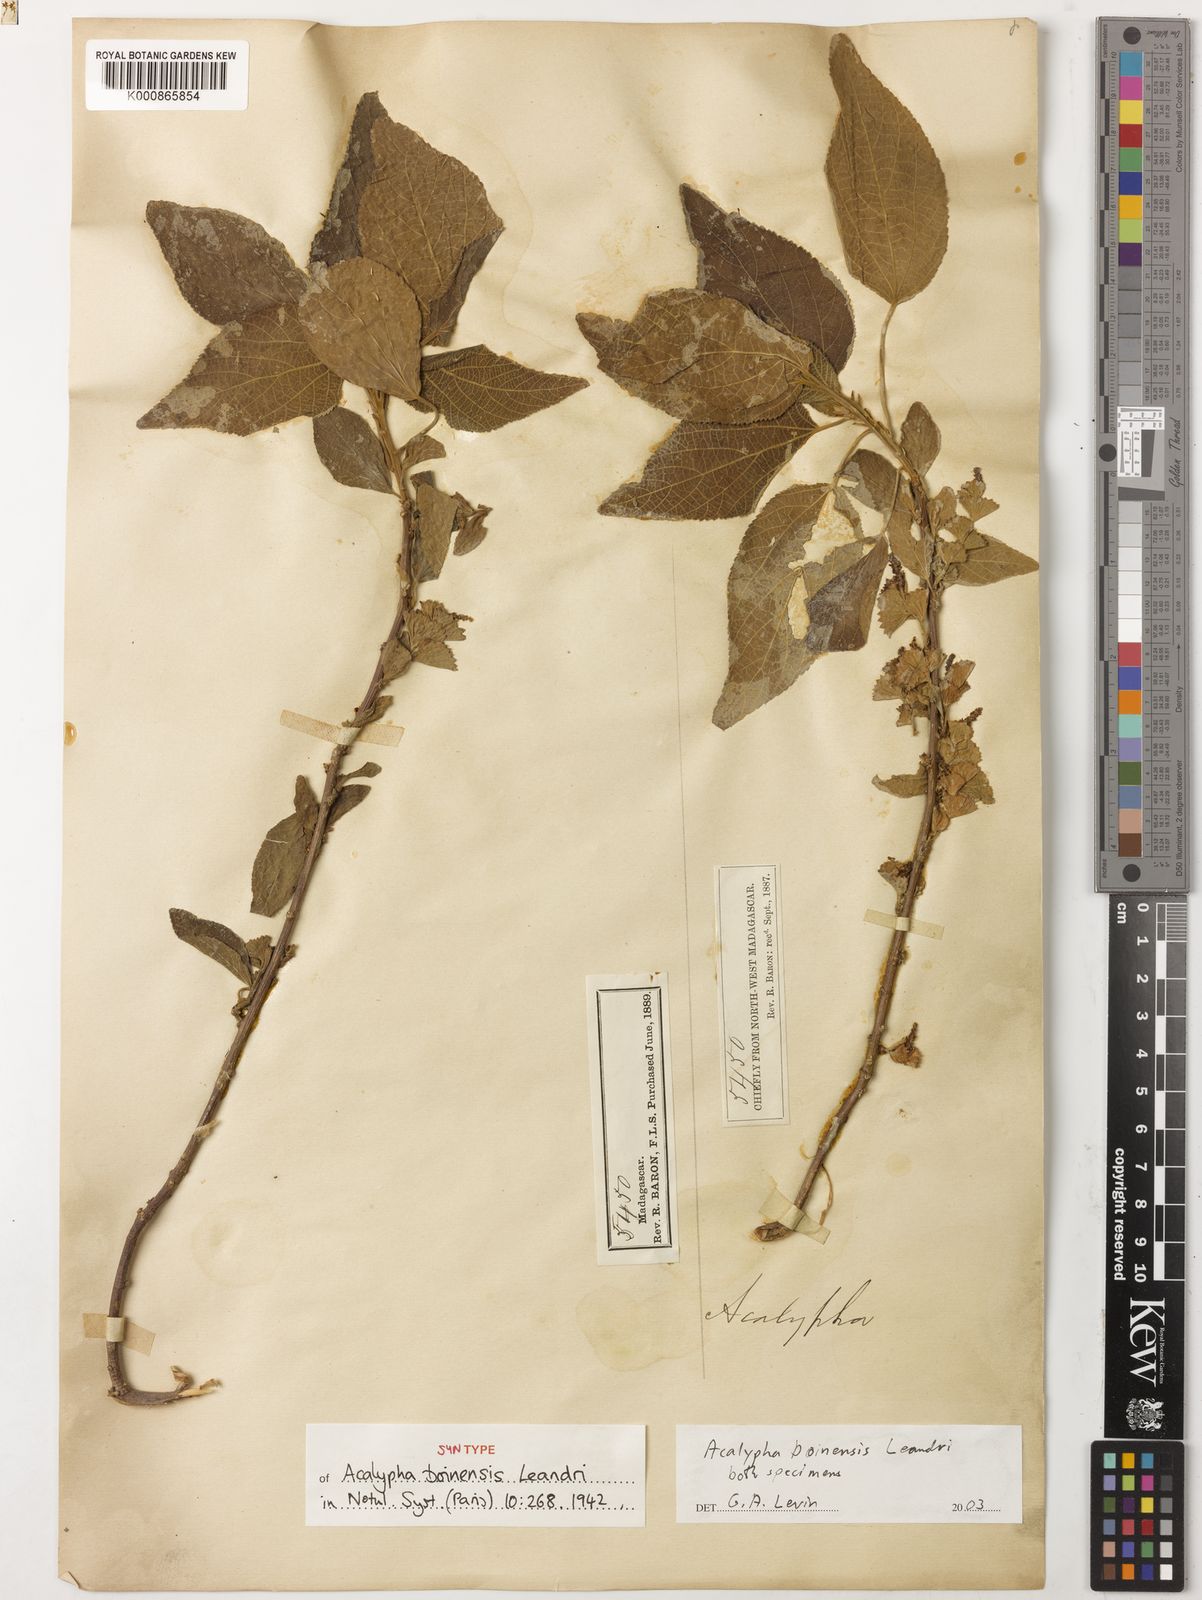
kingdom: Plantae
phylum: Tracheophyta
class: Magnoliopsida
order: Malpighiales
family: Euphorbiaceae
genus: Acalypha
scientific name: Acalypha boinensis
